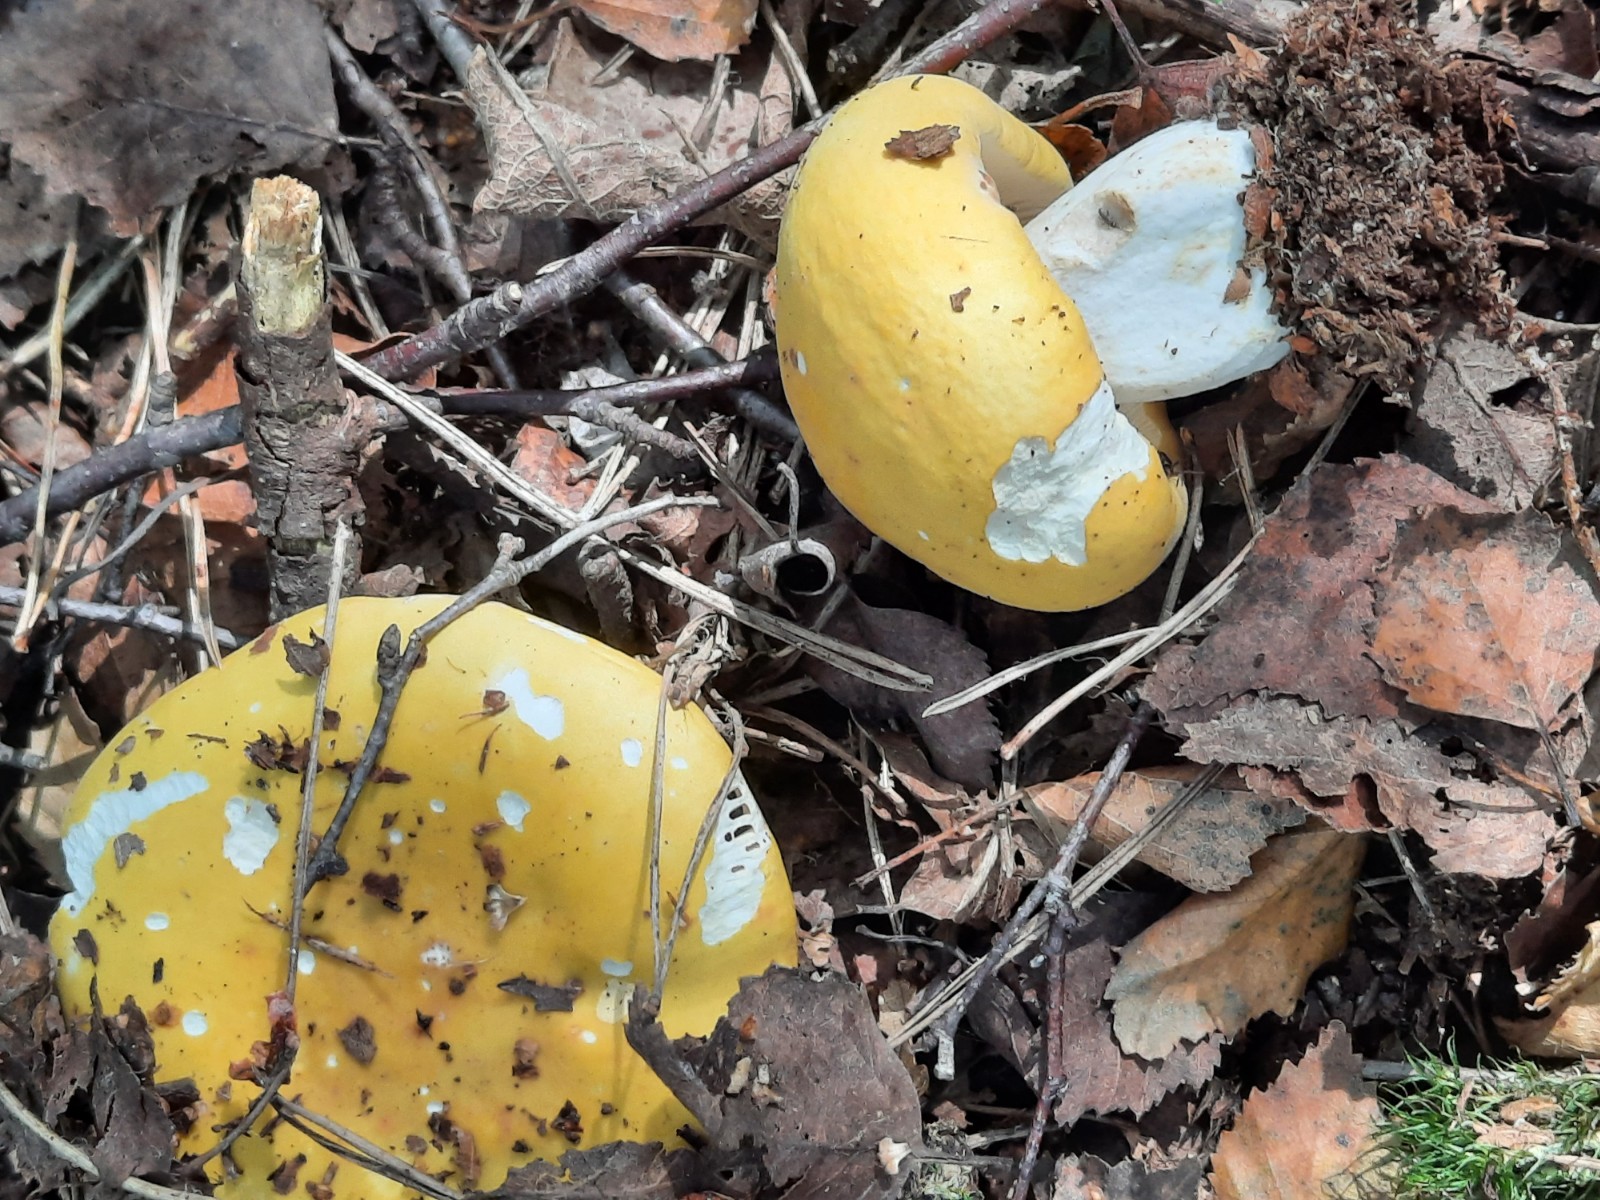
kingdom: Fungi
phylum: Basidiomycota
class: Agaricomycetes
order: Russulales
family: Russulaceae
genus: Russula
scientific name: Russula claroflava
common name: birke-skørhat
